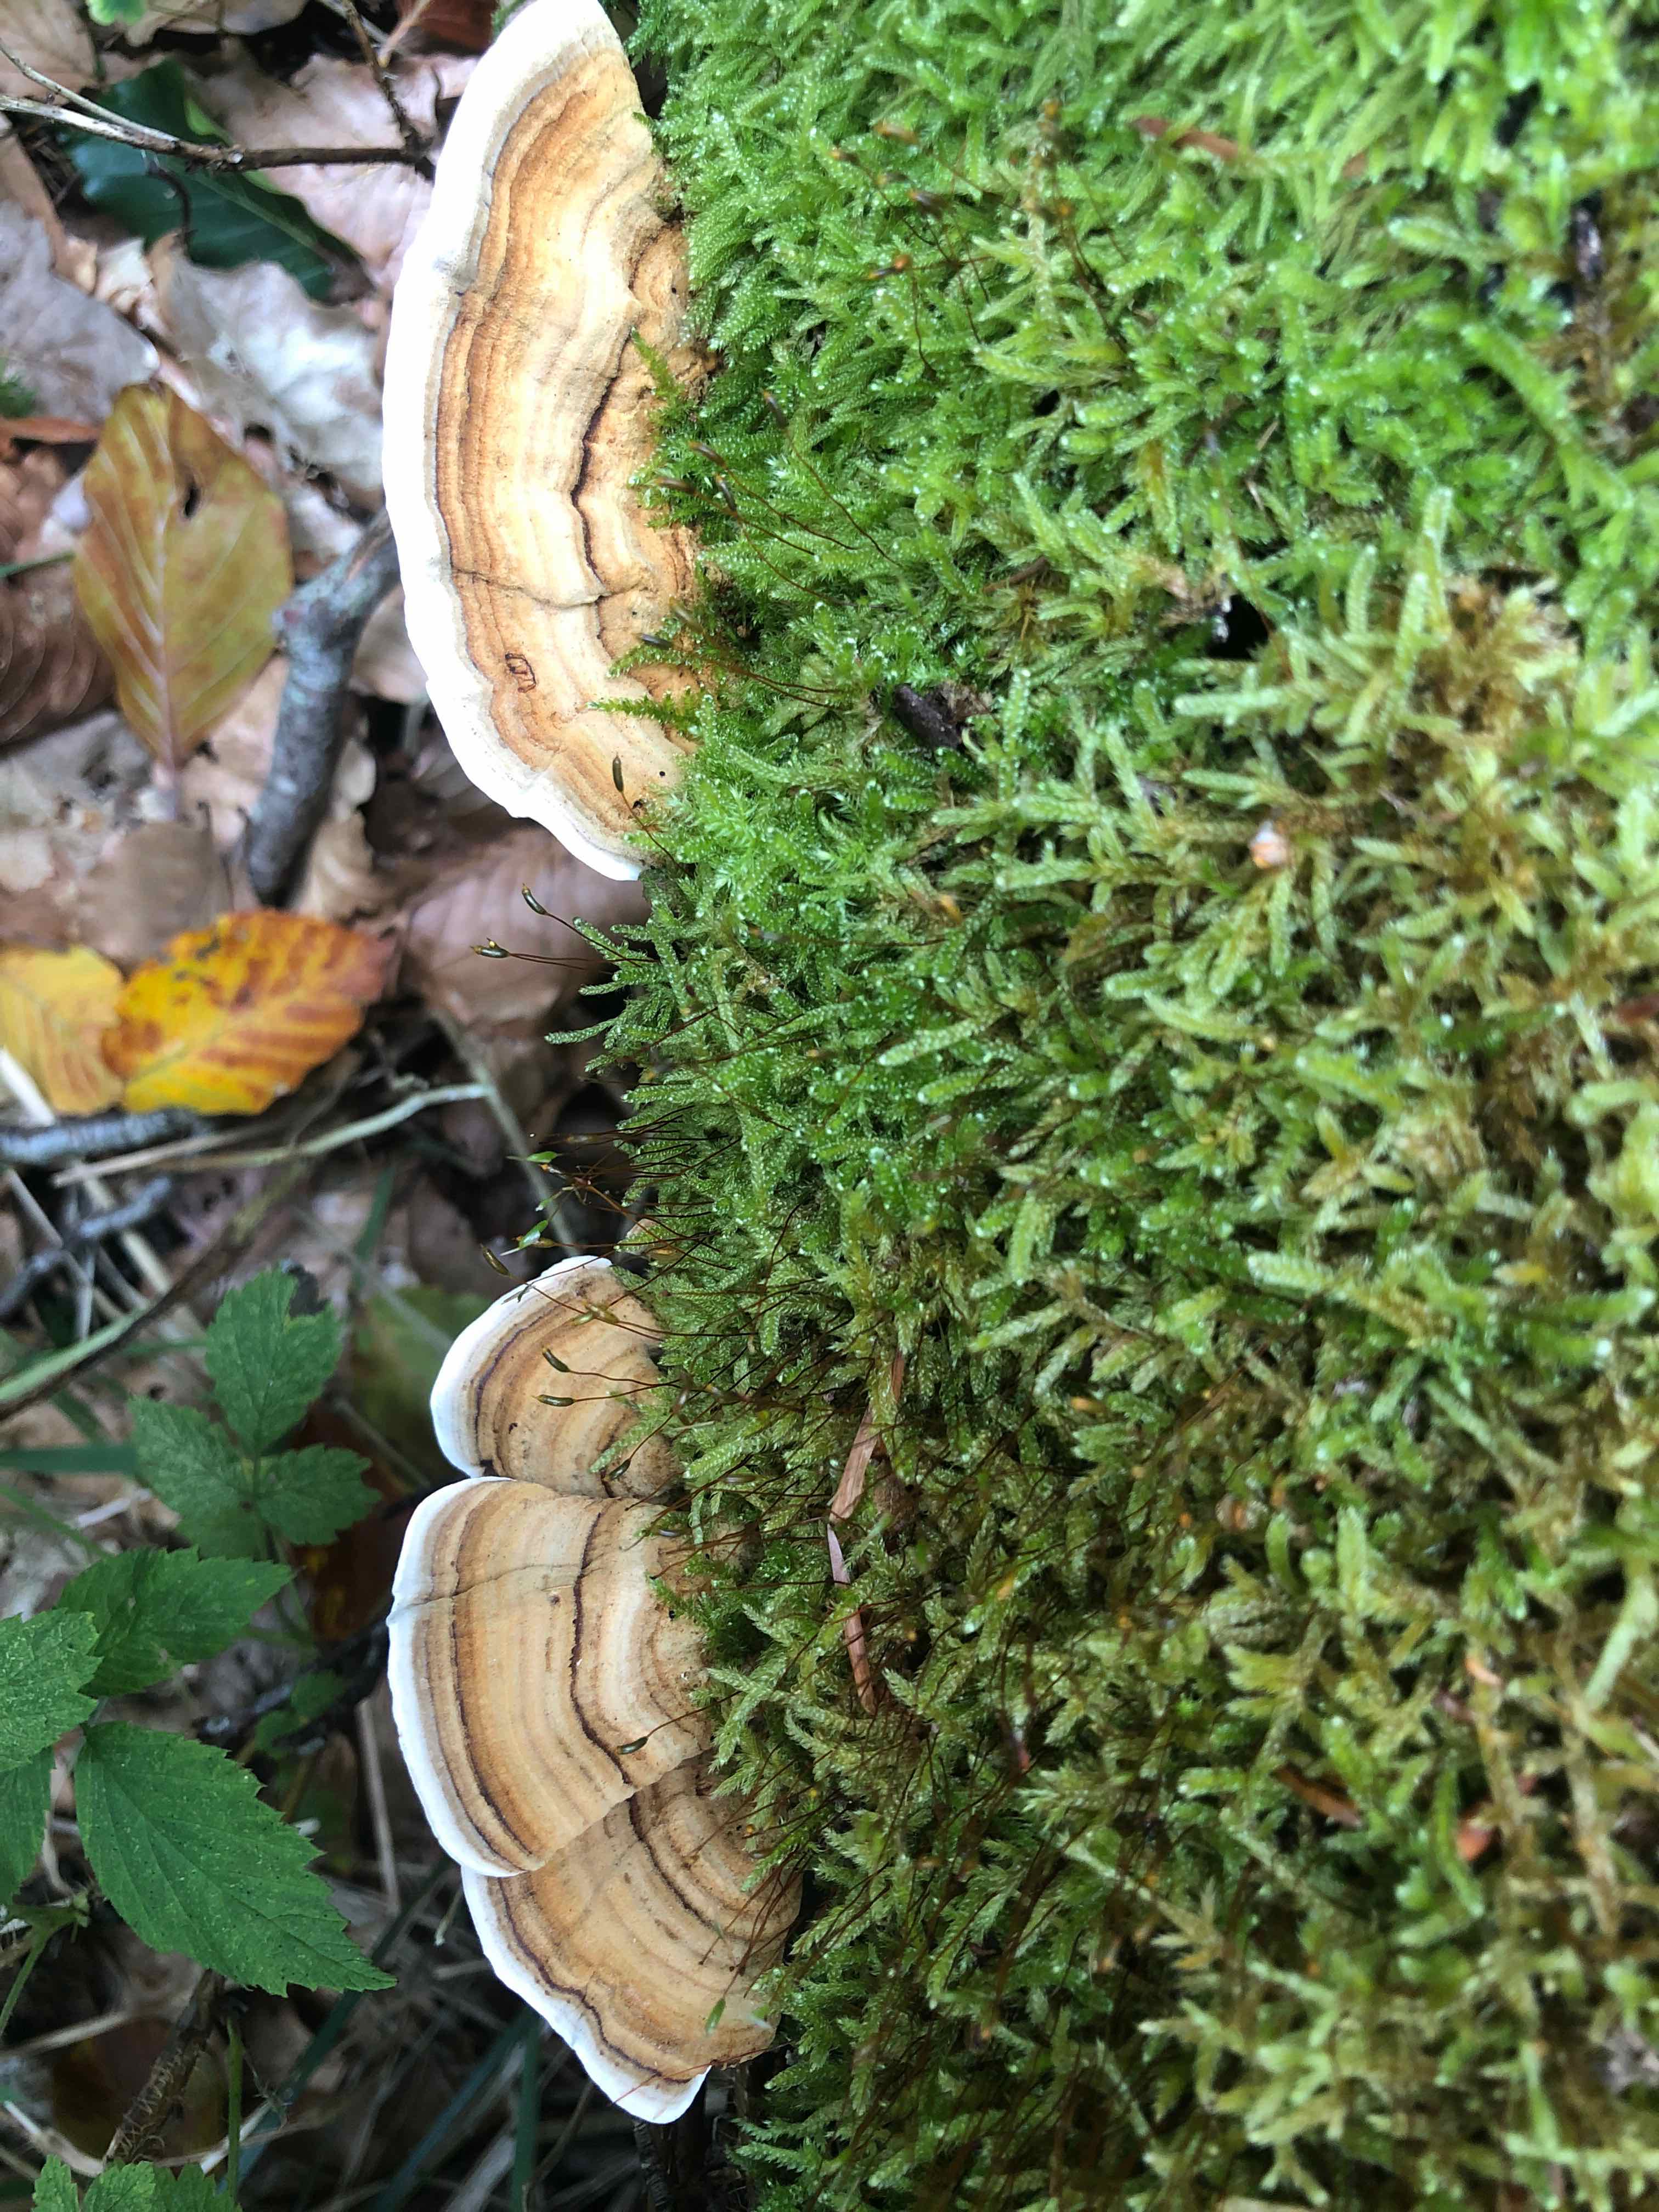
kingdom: Fungi
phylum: Basidiomycota
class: Agaricomycetes
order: Russulales
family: Stereaceae
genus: Stereum
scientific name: Stereum subtomentosum
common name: smuk lædersvamp
